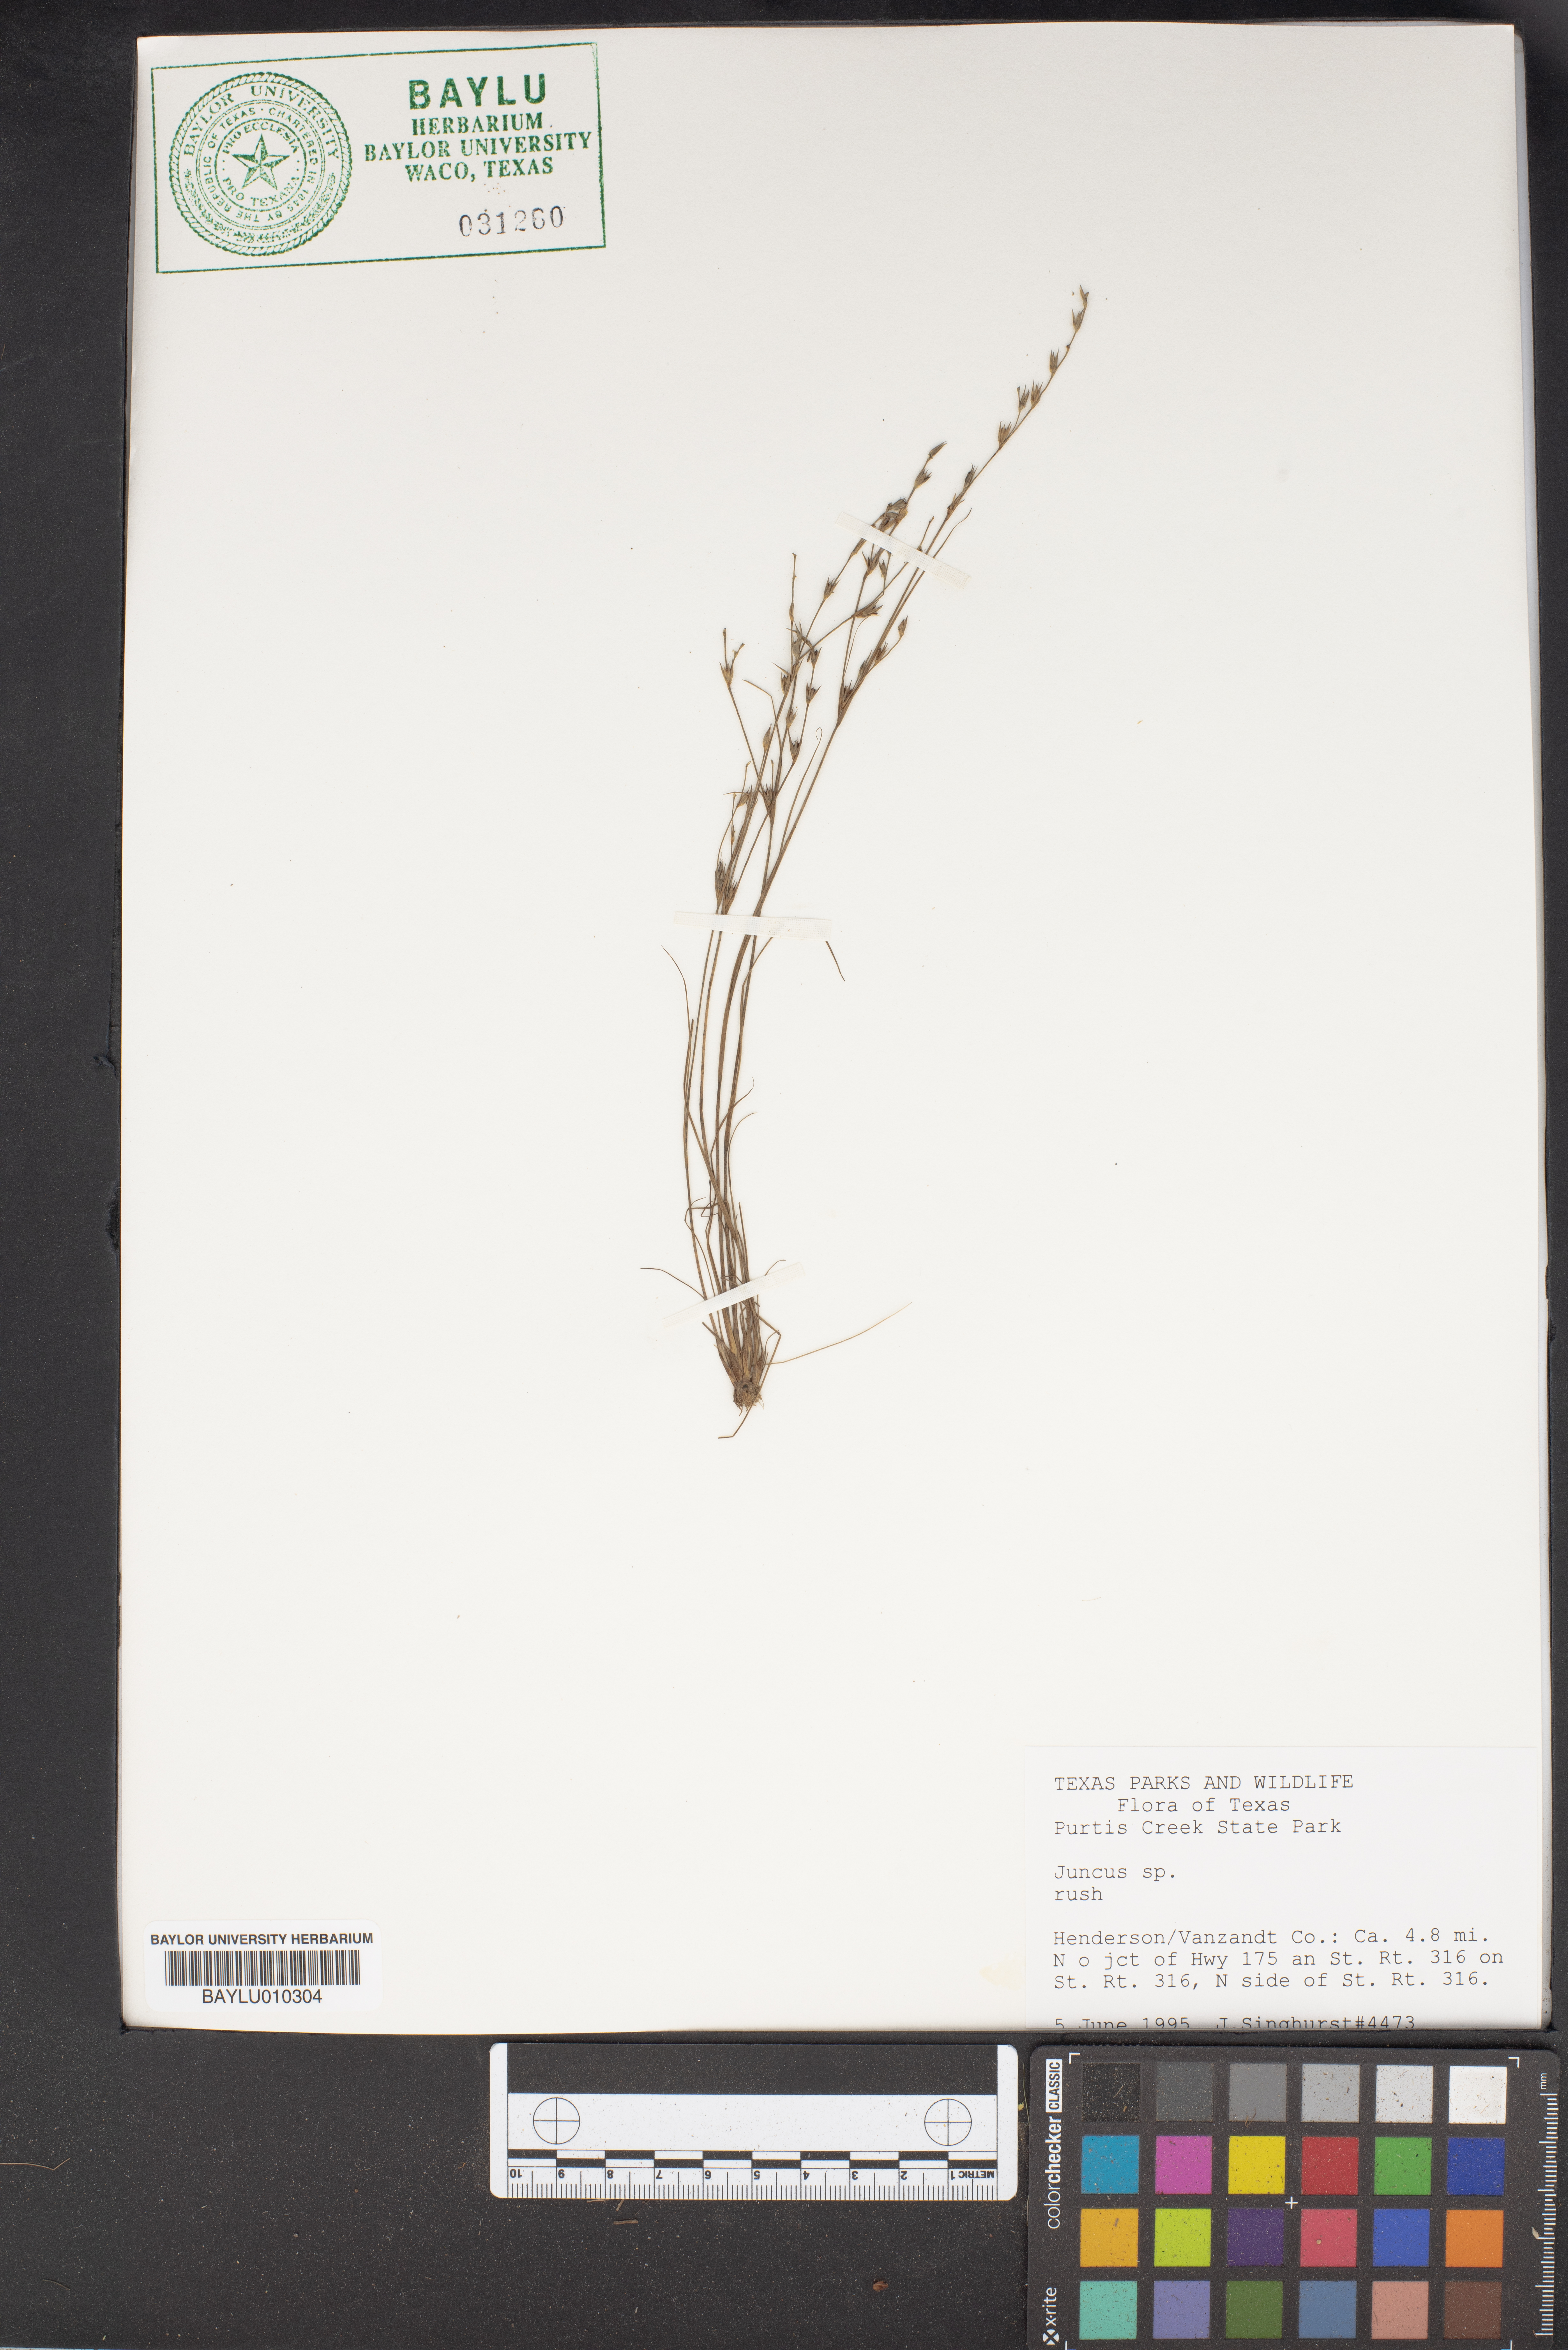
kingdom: Plantae
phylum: Tracheophyta
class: Liliopsida
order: Poales
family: Juncaceae
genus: Juncus
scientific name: Juncus
